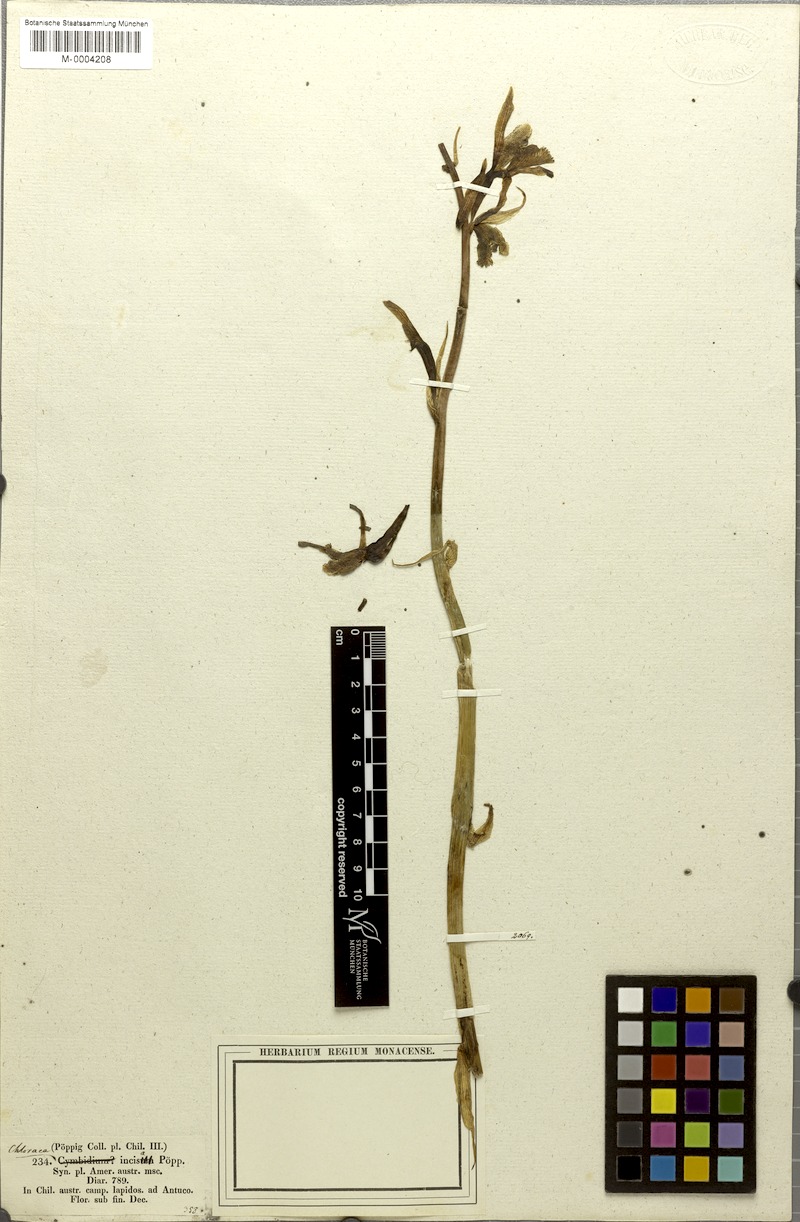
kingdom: Plantae
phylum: Tracheophyta
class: Liliopsida
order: Asparagales
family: Orchidaceae
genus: Chloraea
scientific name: Chloraea piquichen
